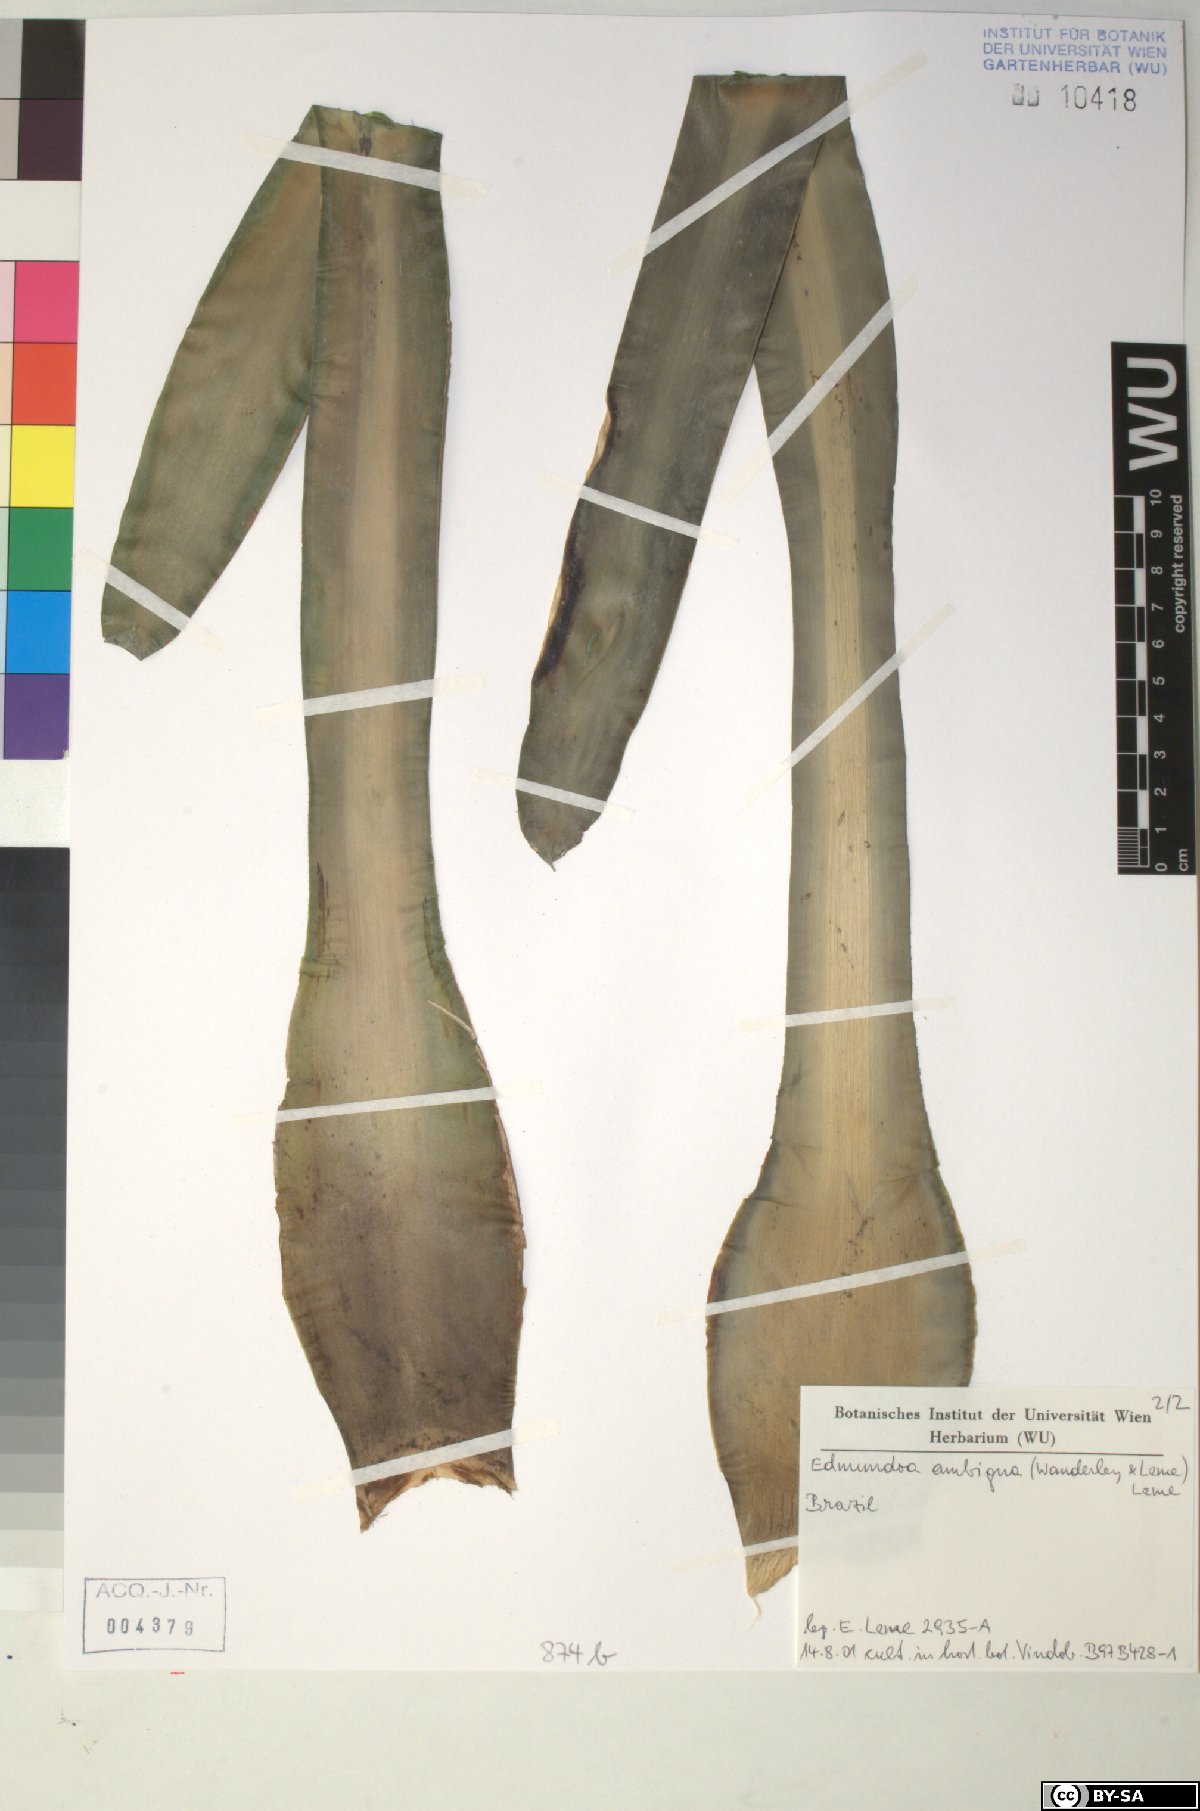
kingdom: Plantae
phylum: Tracheophyta
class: Liliopsida
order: Poales
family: Bromeliaceae
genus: Edmundoa
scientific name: Edmundoa ambigua
